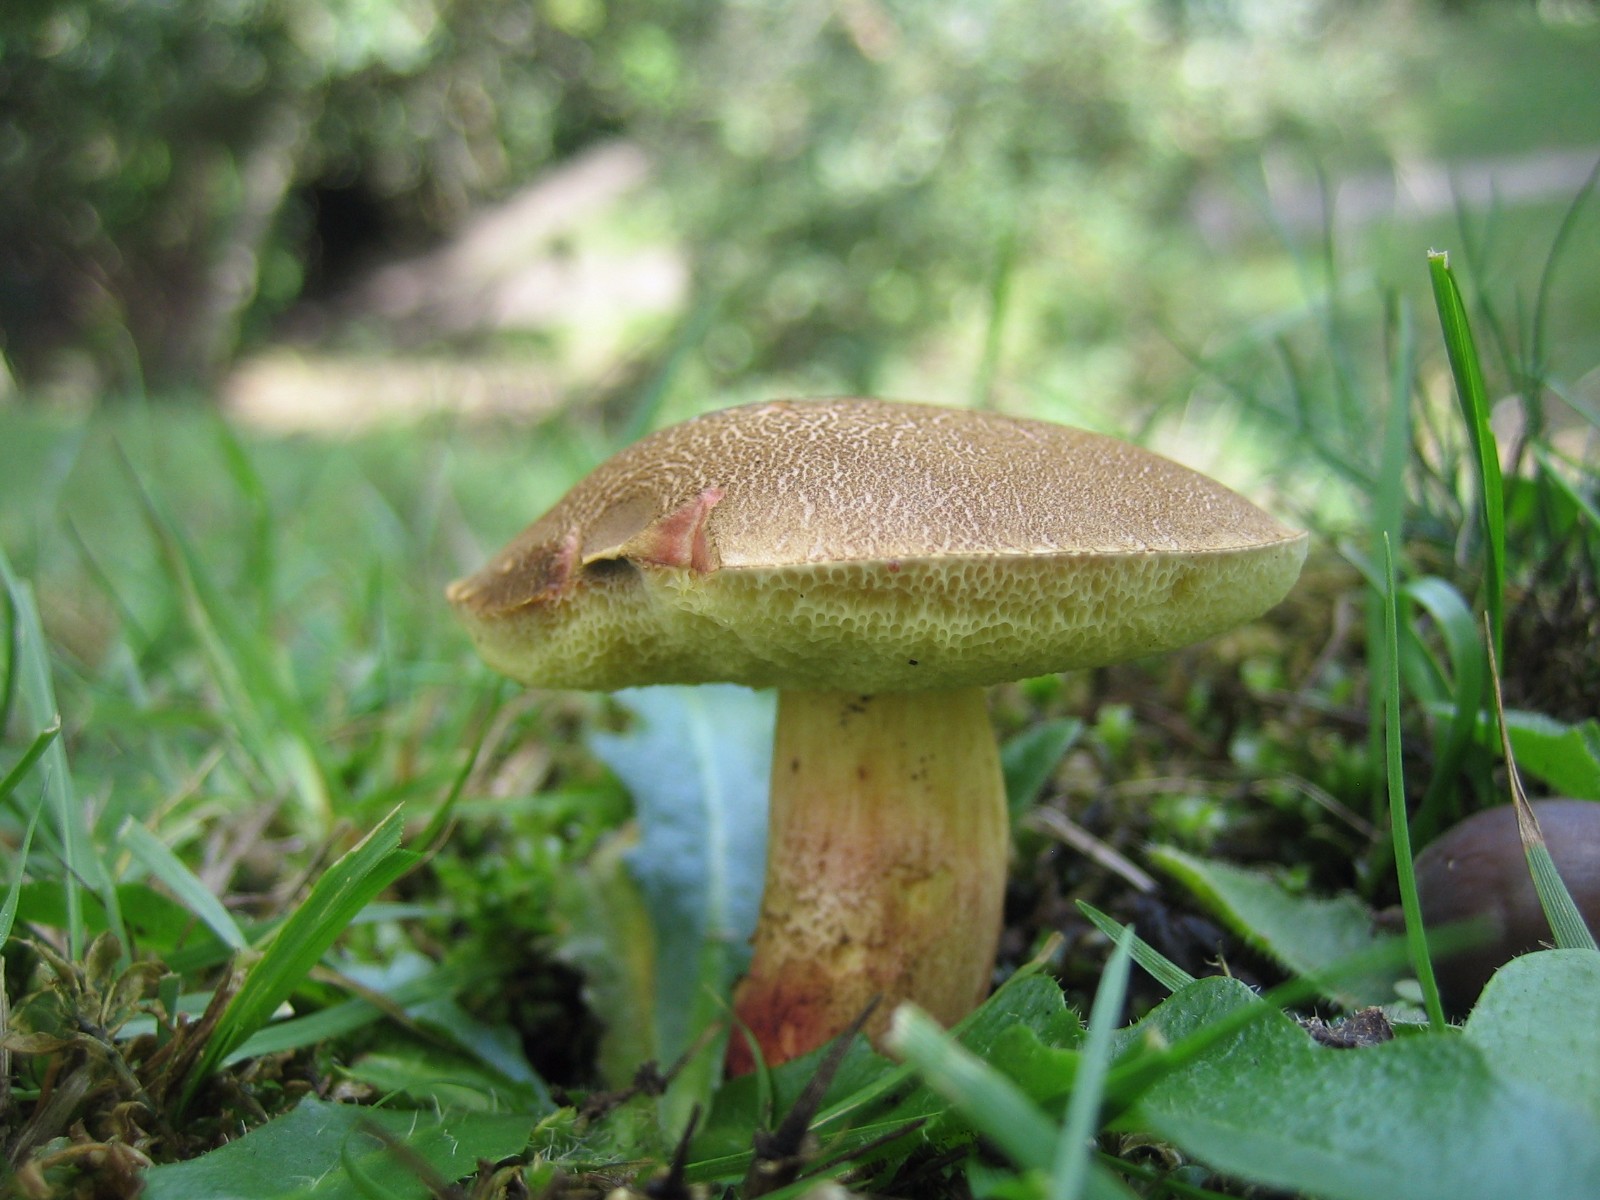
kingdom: Fungi
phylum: Basidiomycota
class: Agaricomycetes
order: Boletales
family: Boletaceae
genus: Xerocomellus
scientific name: Xerocomellus chrysenteron
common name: rødsprukken rørhat
